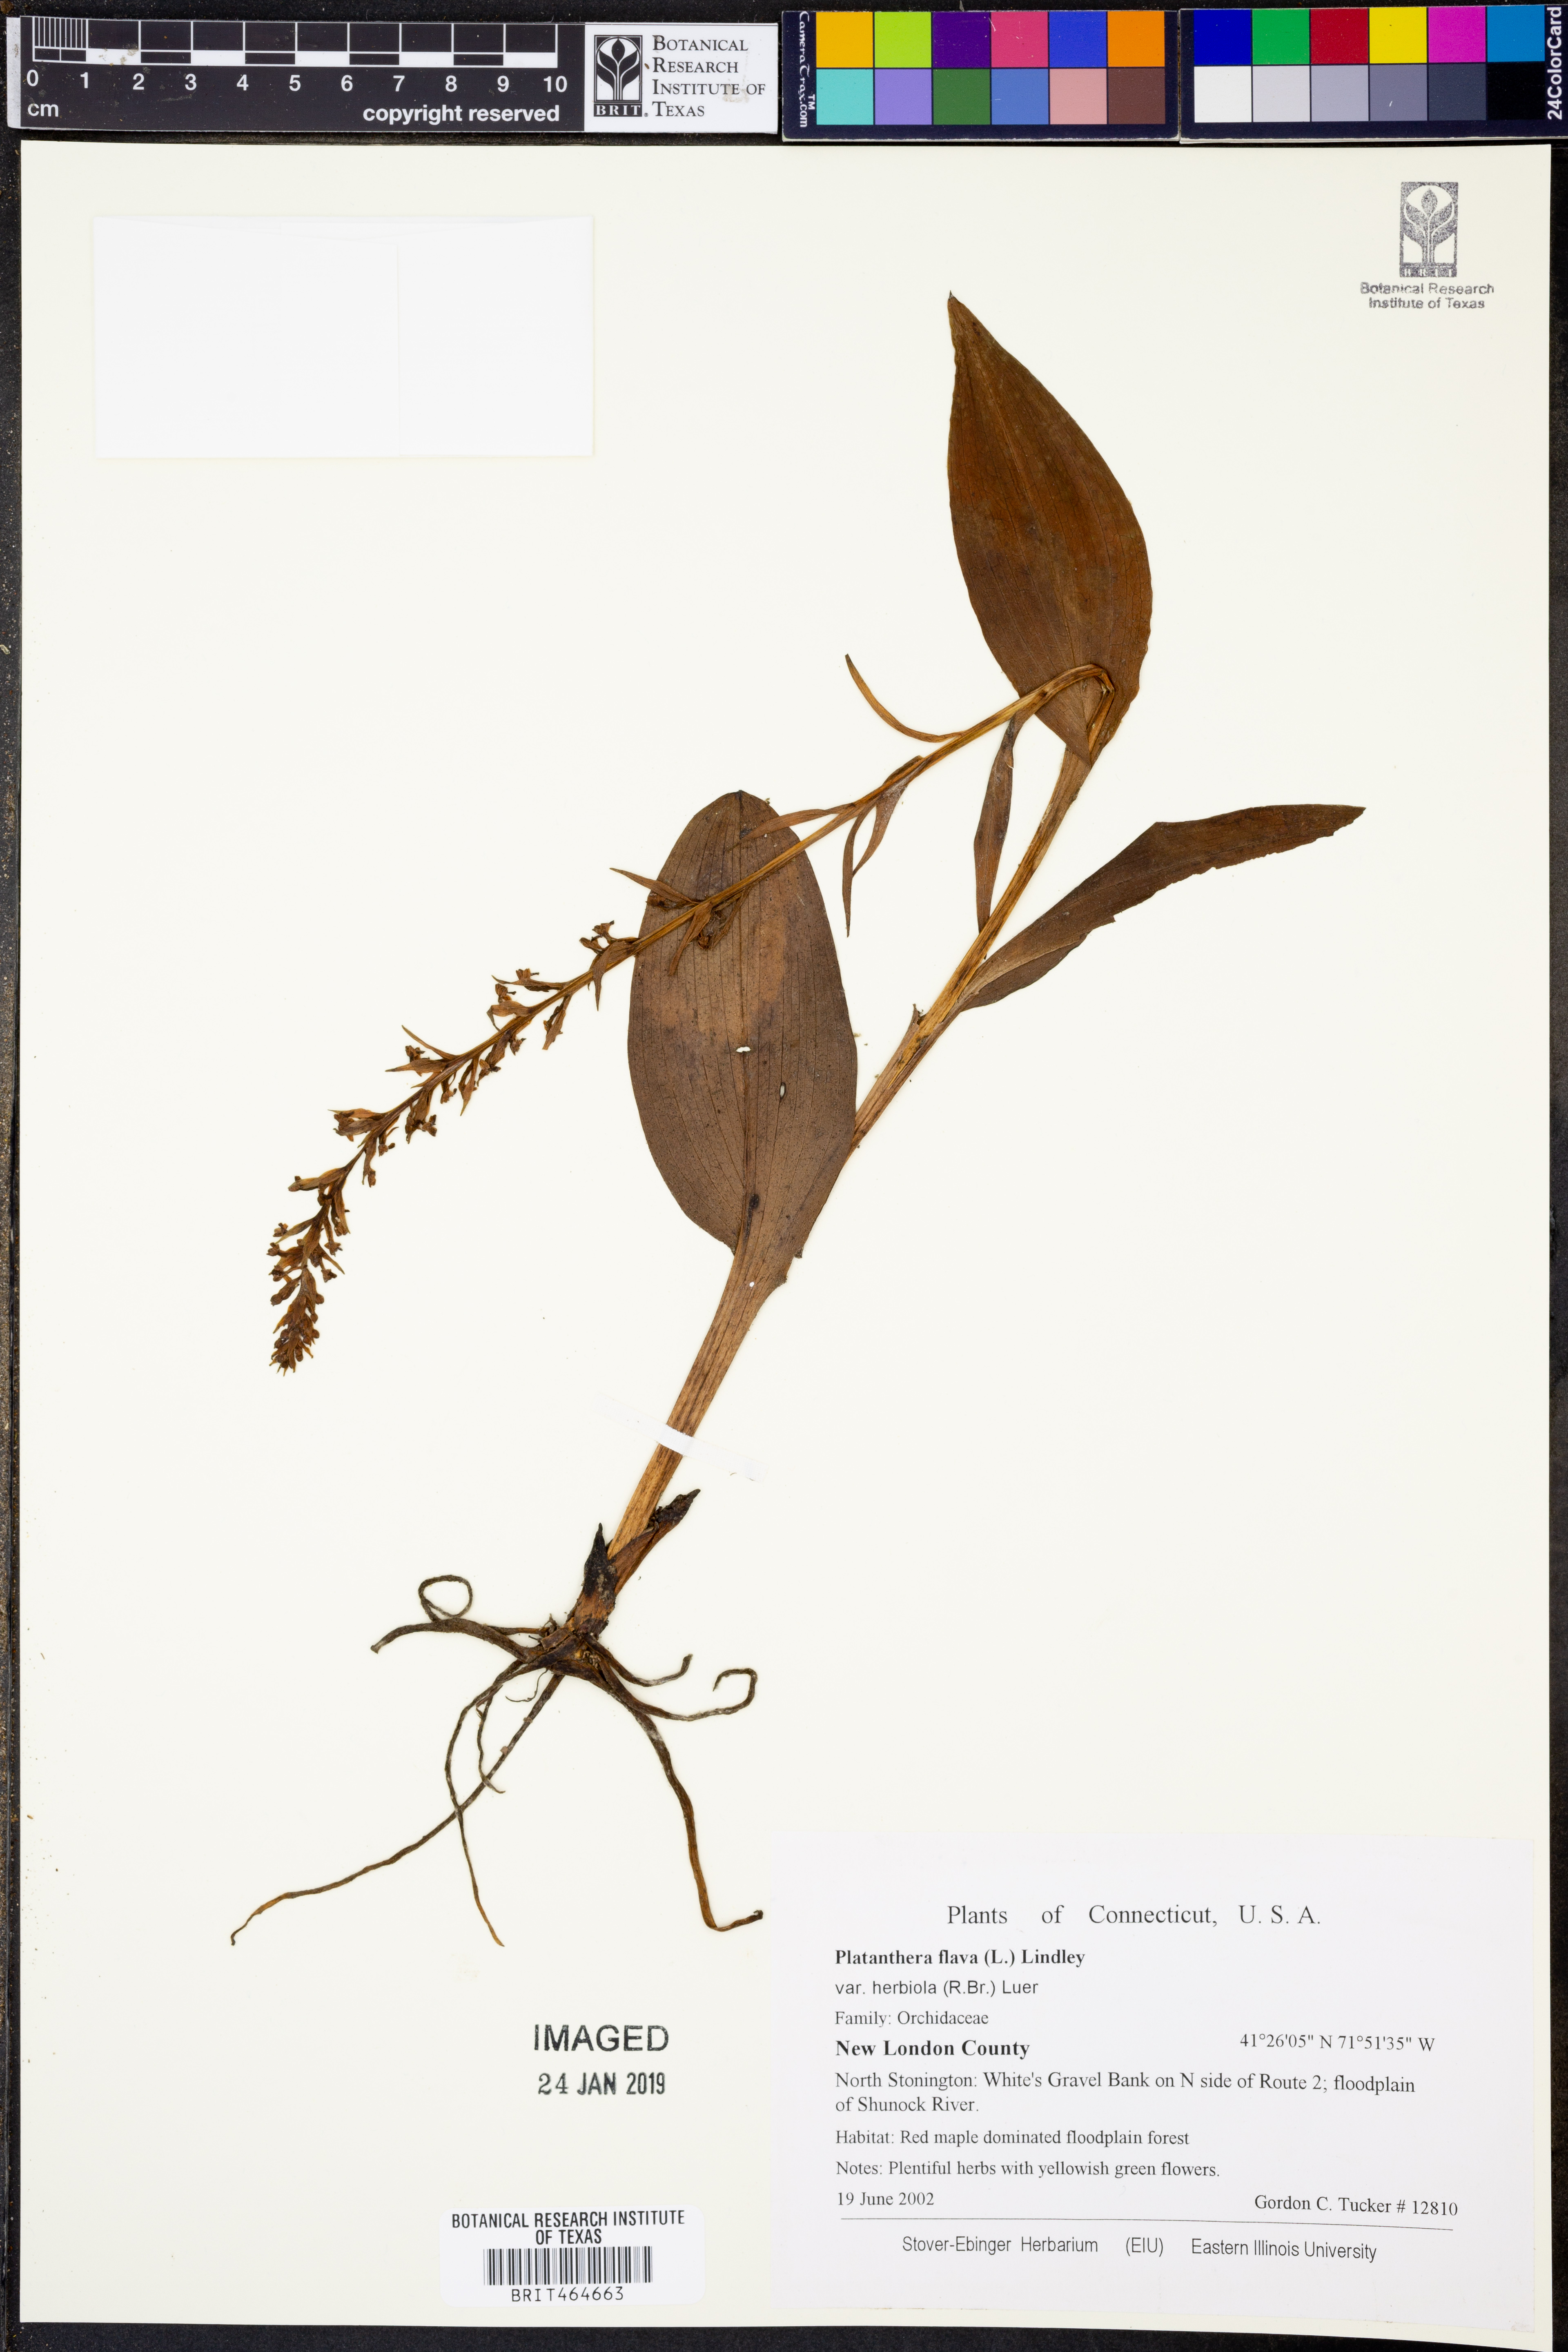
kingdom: Plantae
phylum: Tracheophyta
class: Liliopsida
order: Asparagales
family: Orchidaceae
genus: Platanthera
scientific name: Platanthera flava
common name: Gypsy-spikes
